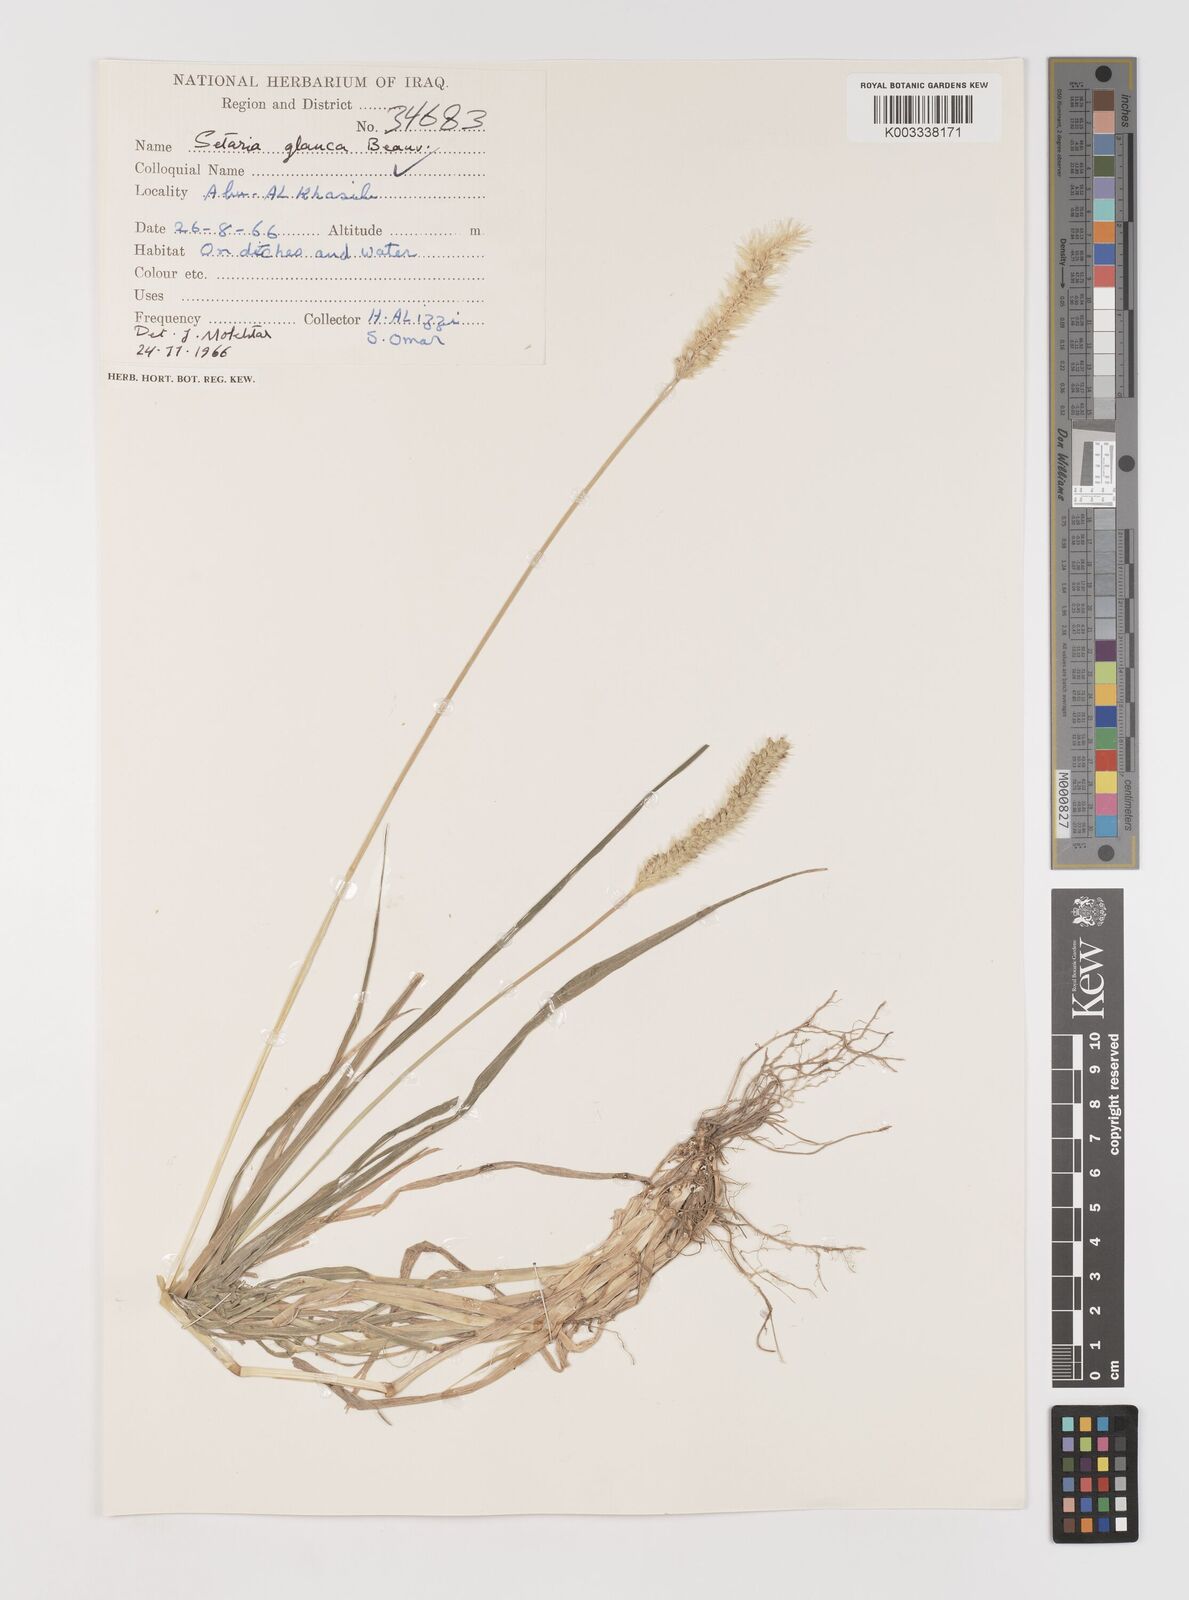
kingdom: Plantae
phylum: Tracheophyta
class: Liliopsida
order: Poales
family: Poaceae
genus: Setaria
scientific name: Setaria pumila
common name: Yellow bristle-grass
